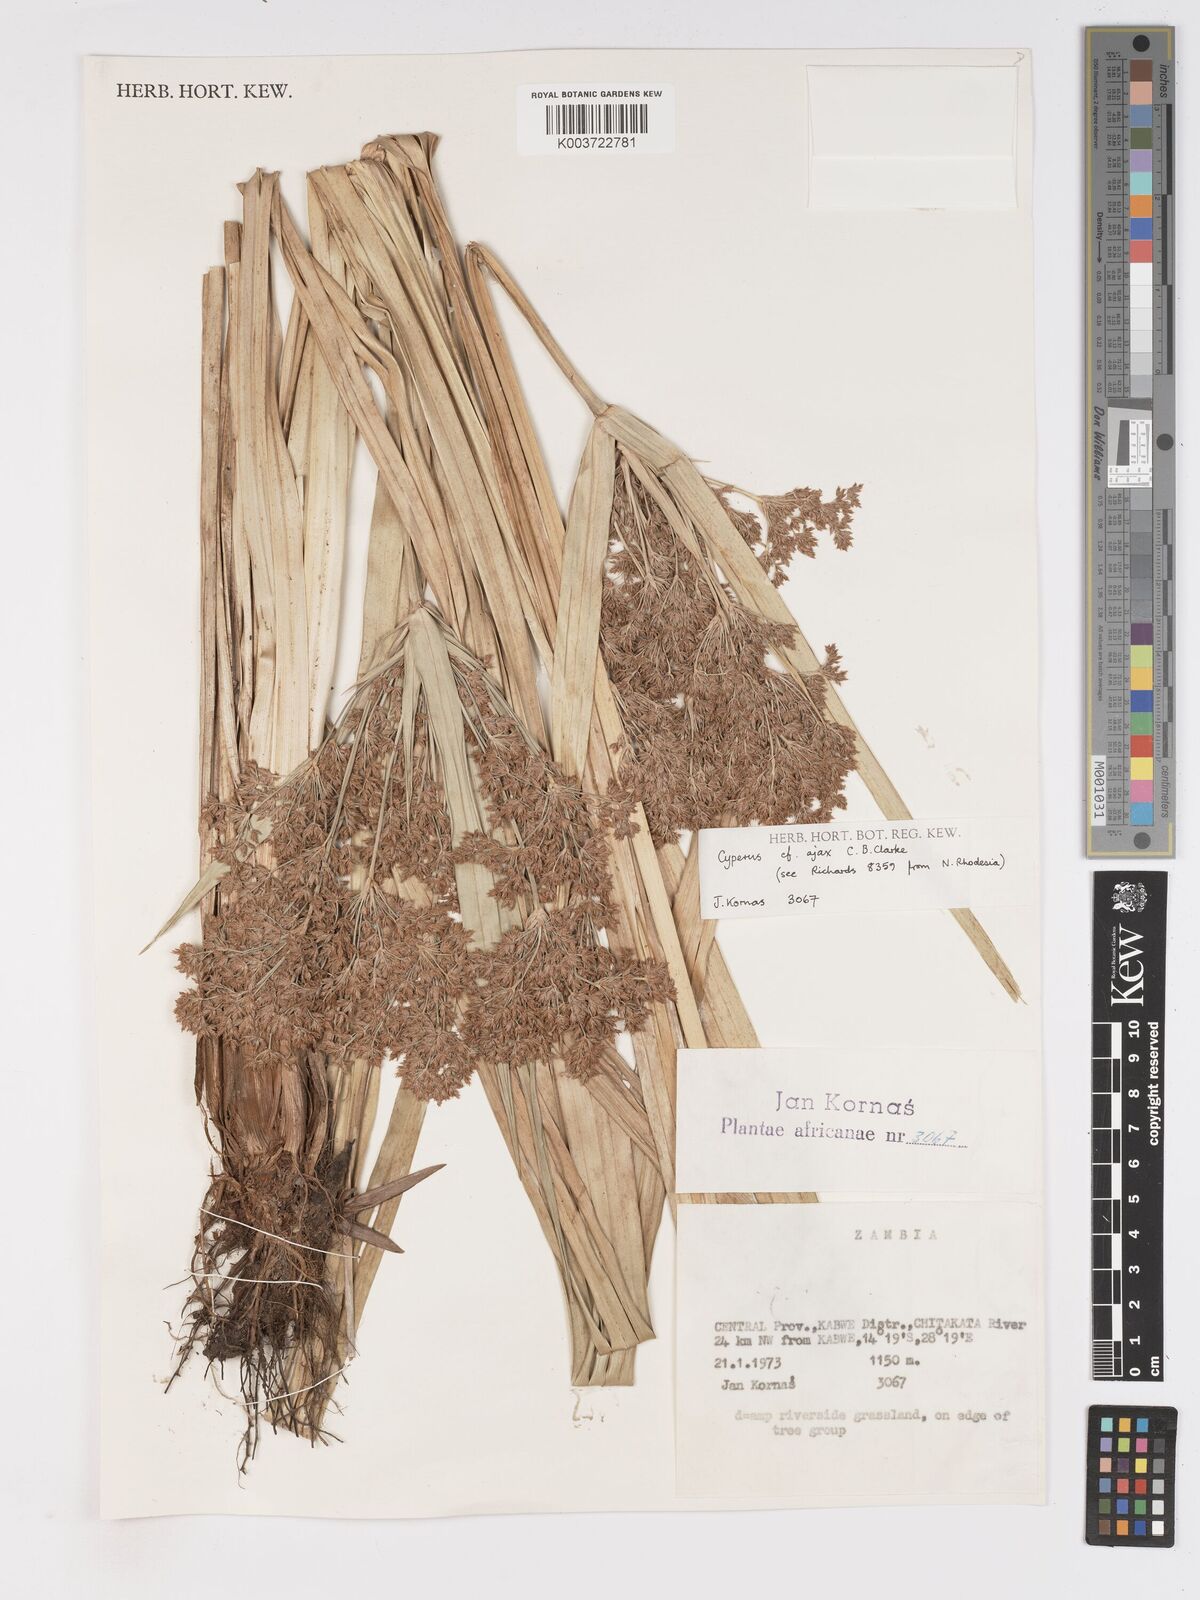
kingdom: Plantae
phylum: Tracheophyta
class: Liliopsida
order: Poales
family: Cyperaceae
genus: Cyperus
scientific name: Cyperus ajax
